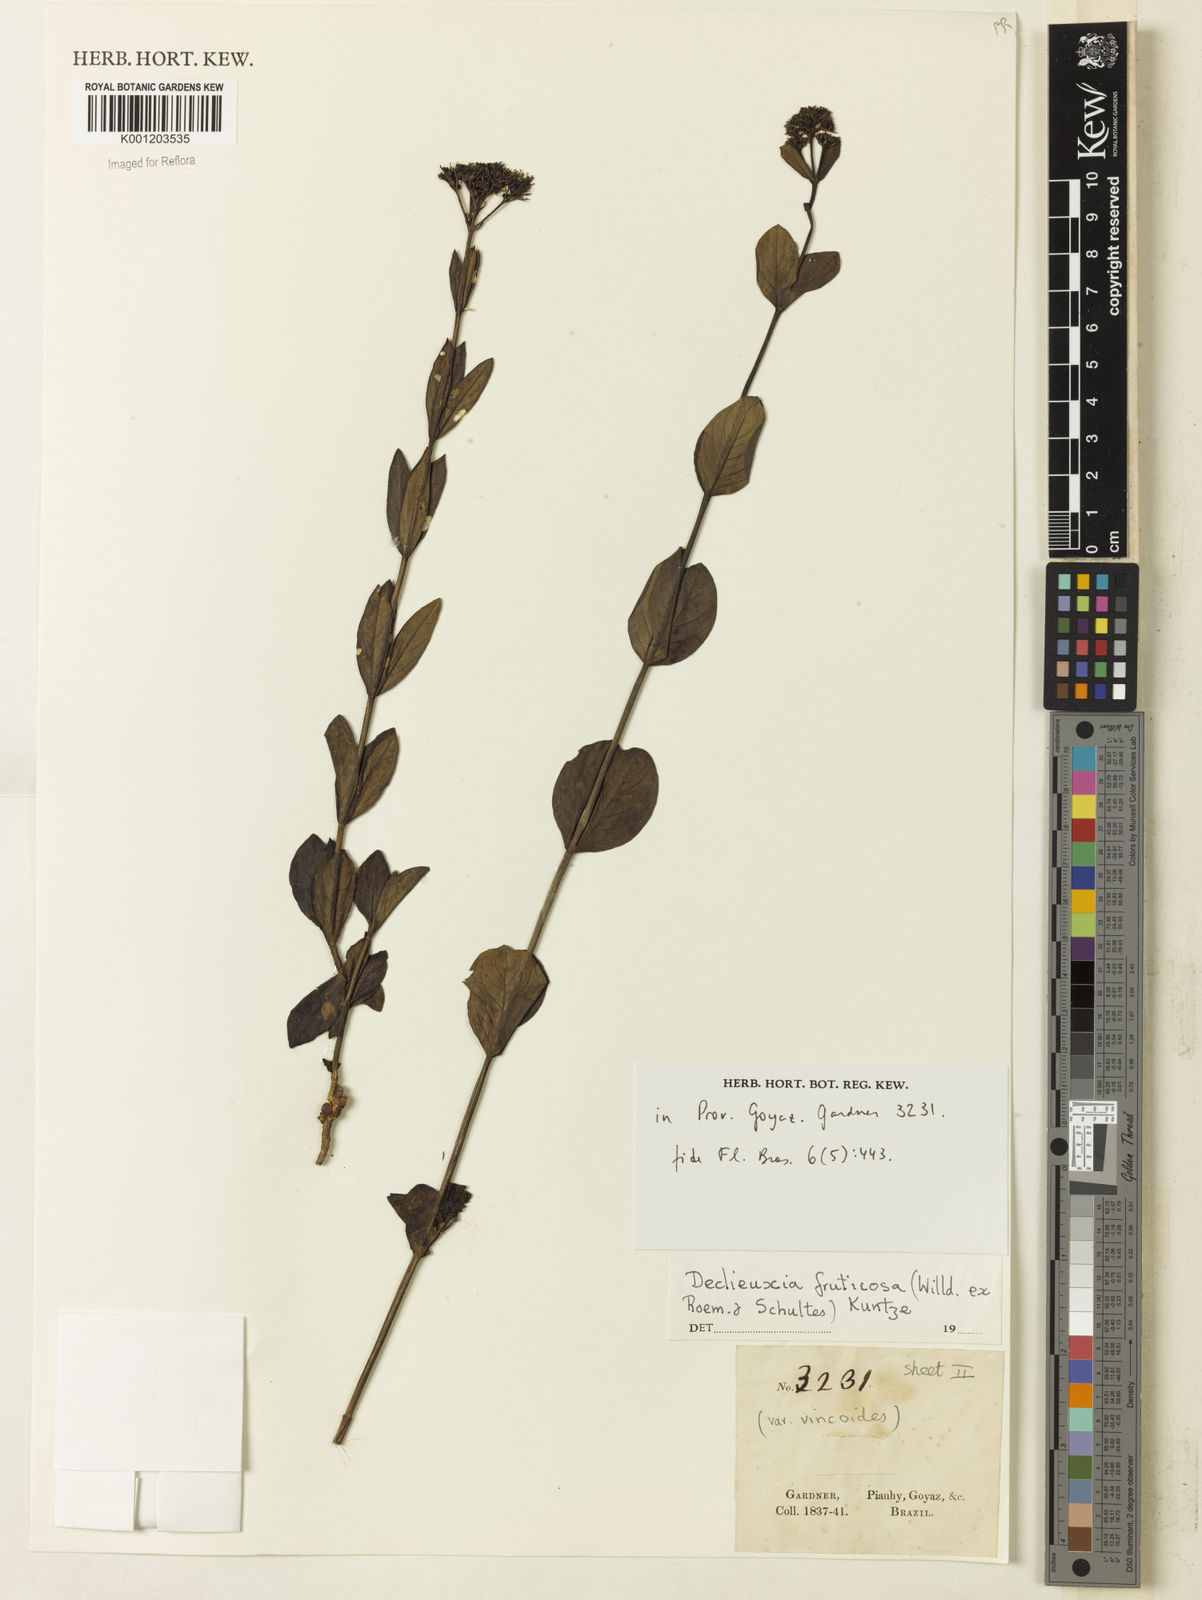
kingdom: Plantae
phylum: Tracheophyta
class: Magnoliopsida
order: Gentianales
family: Rubiaceae
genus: Declieuxia
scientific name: Declieuxia fruticosa
